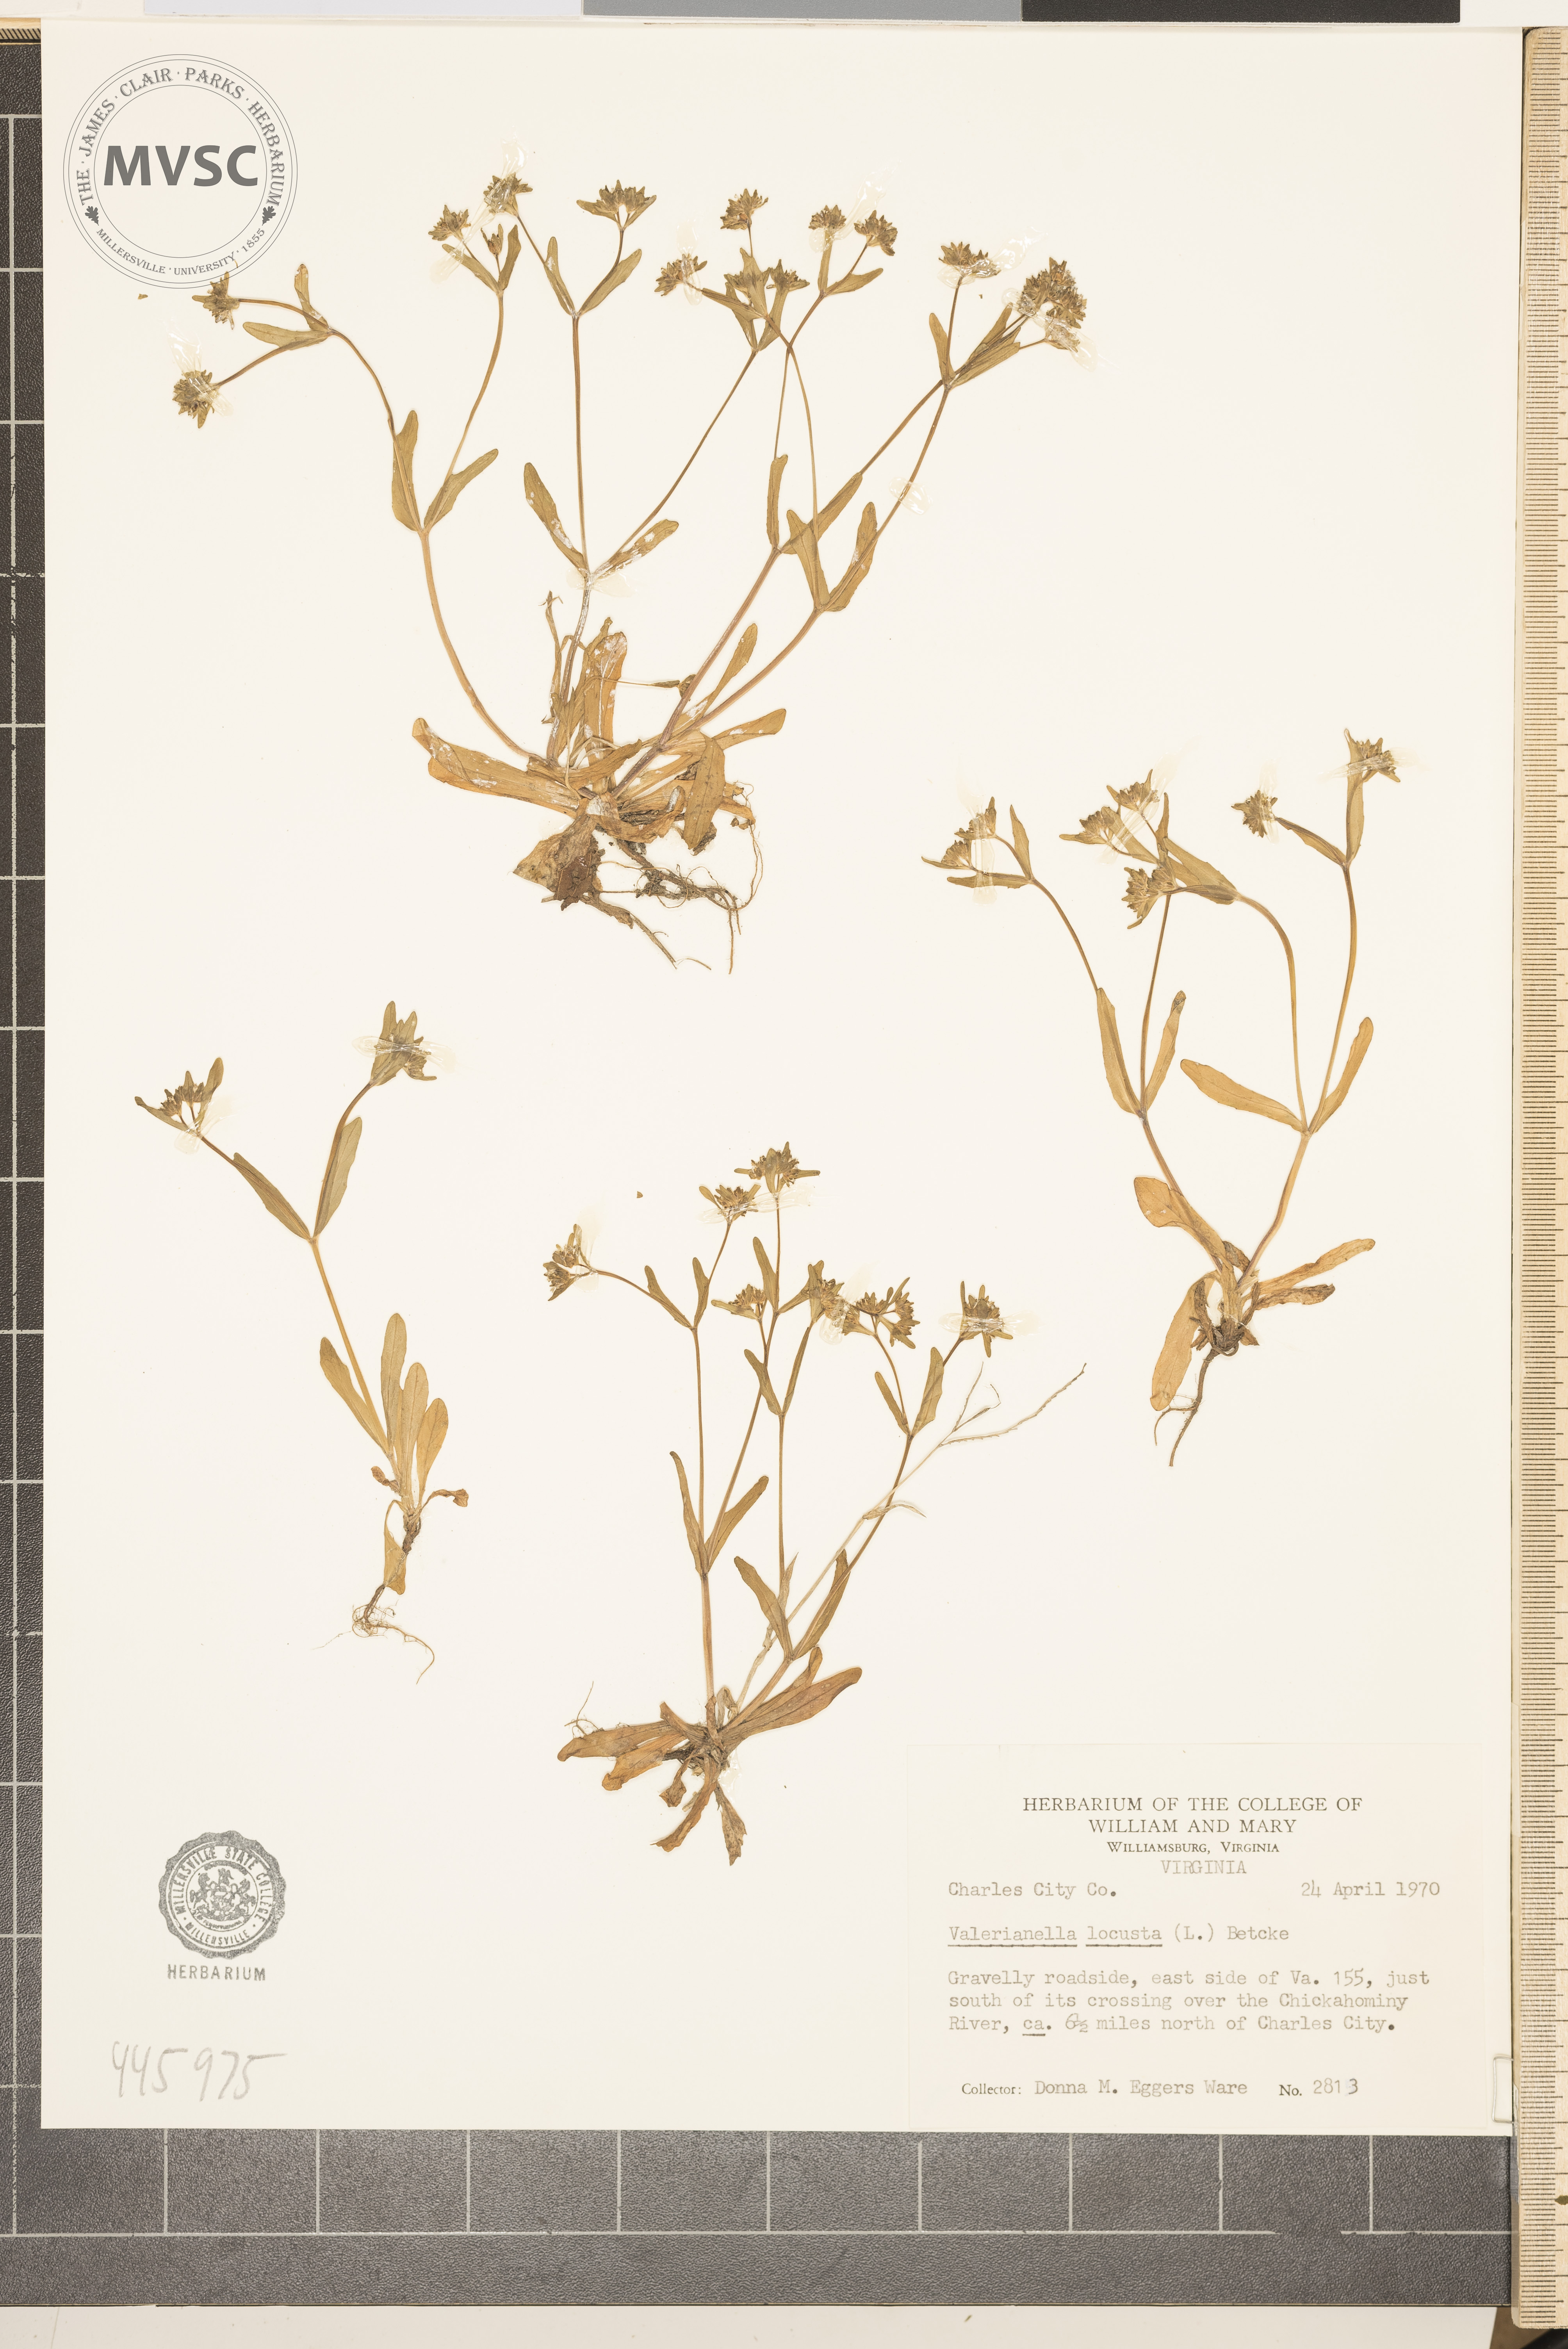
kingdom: Plantae
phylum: Tracheophyta
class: Magnoliopsida
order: Dipsacales
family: Caprifoliaceae
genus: Valerianella
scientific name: Valerianella locusta
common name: Common cornsalad
